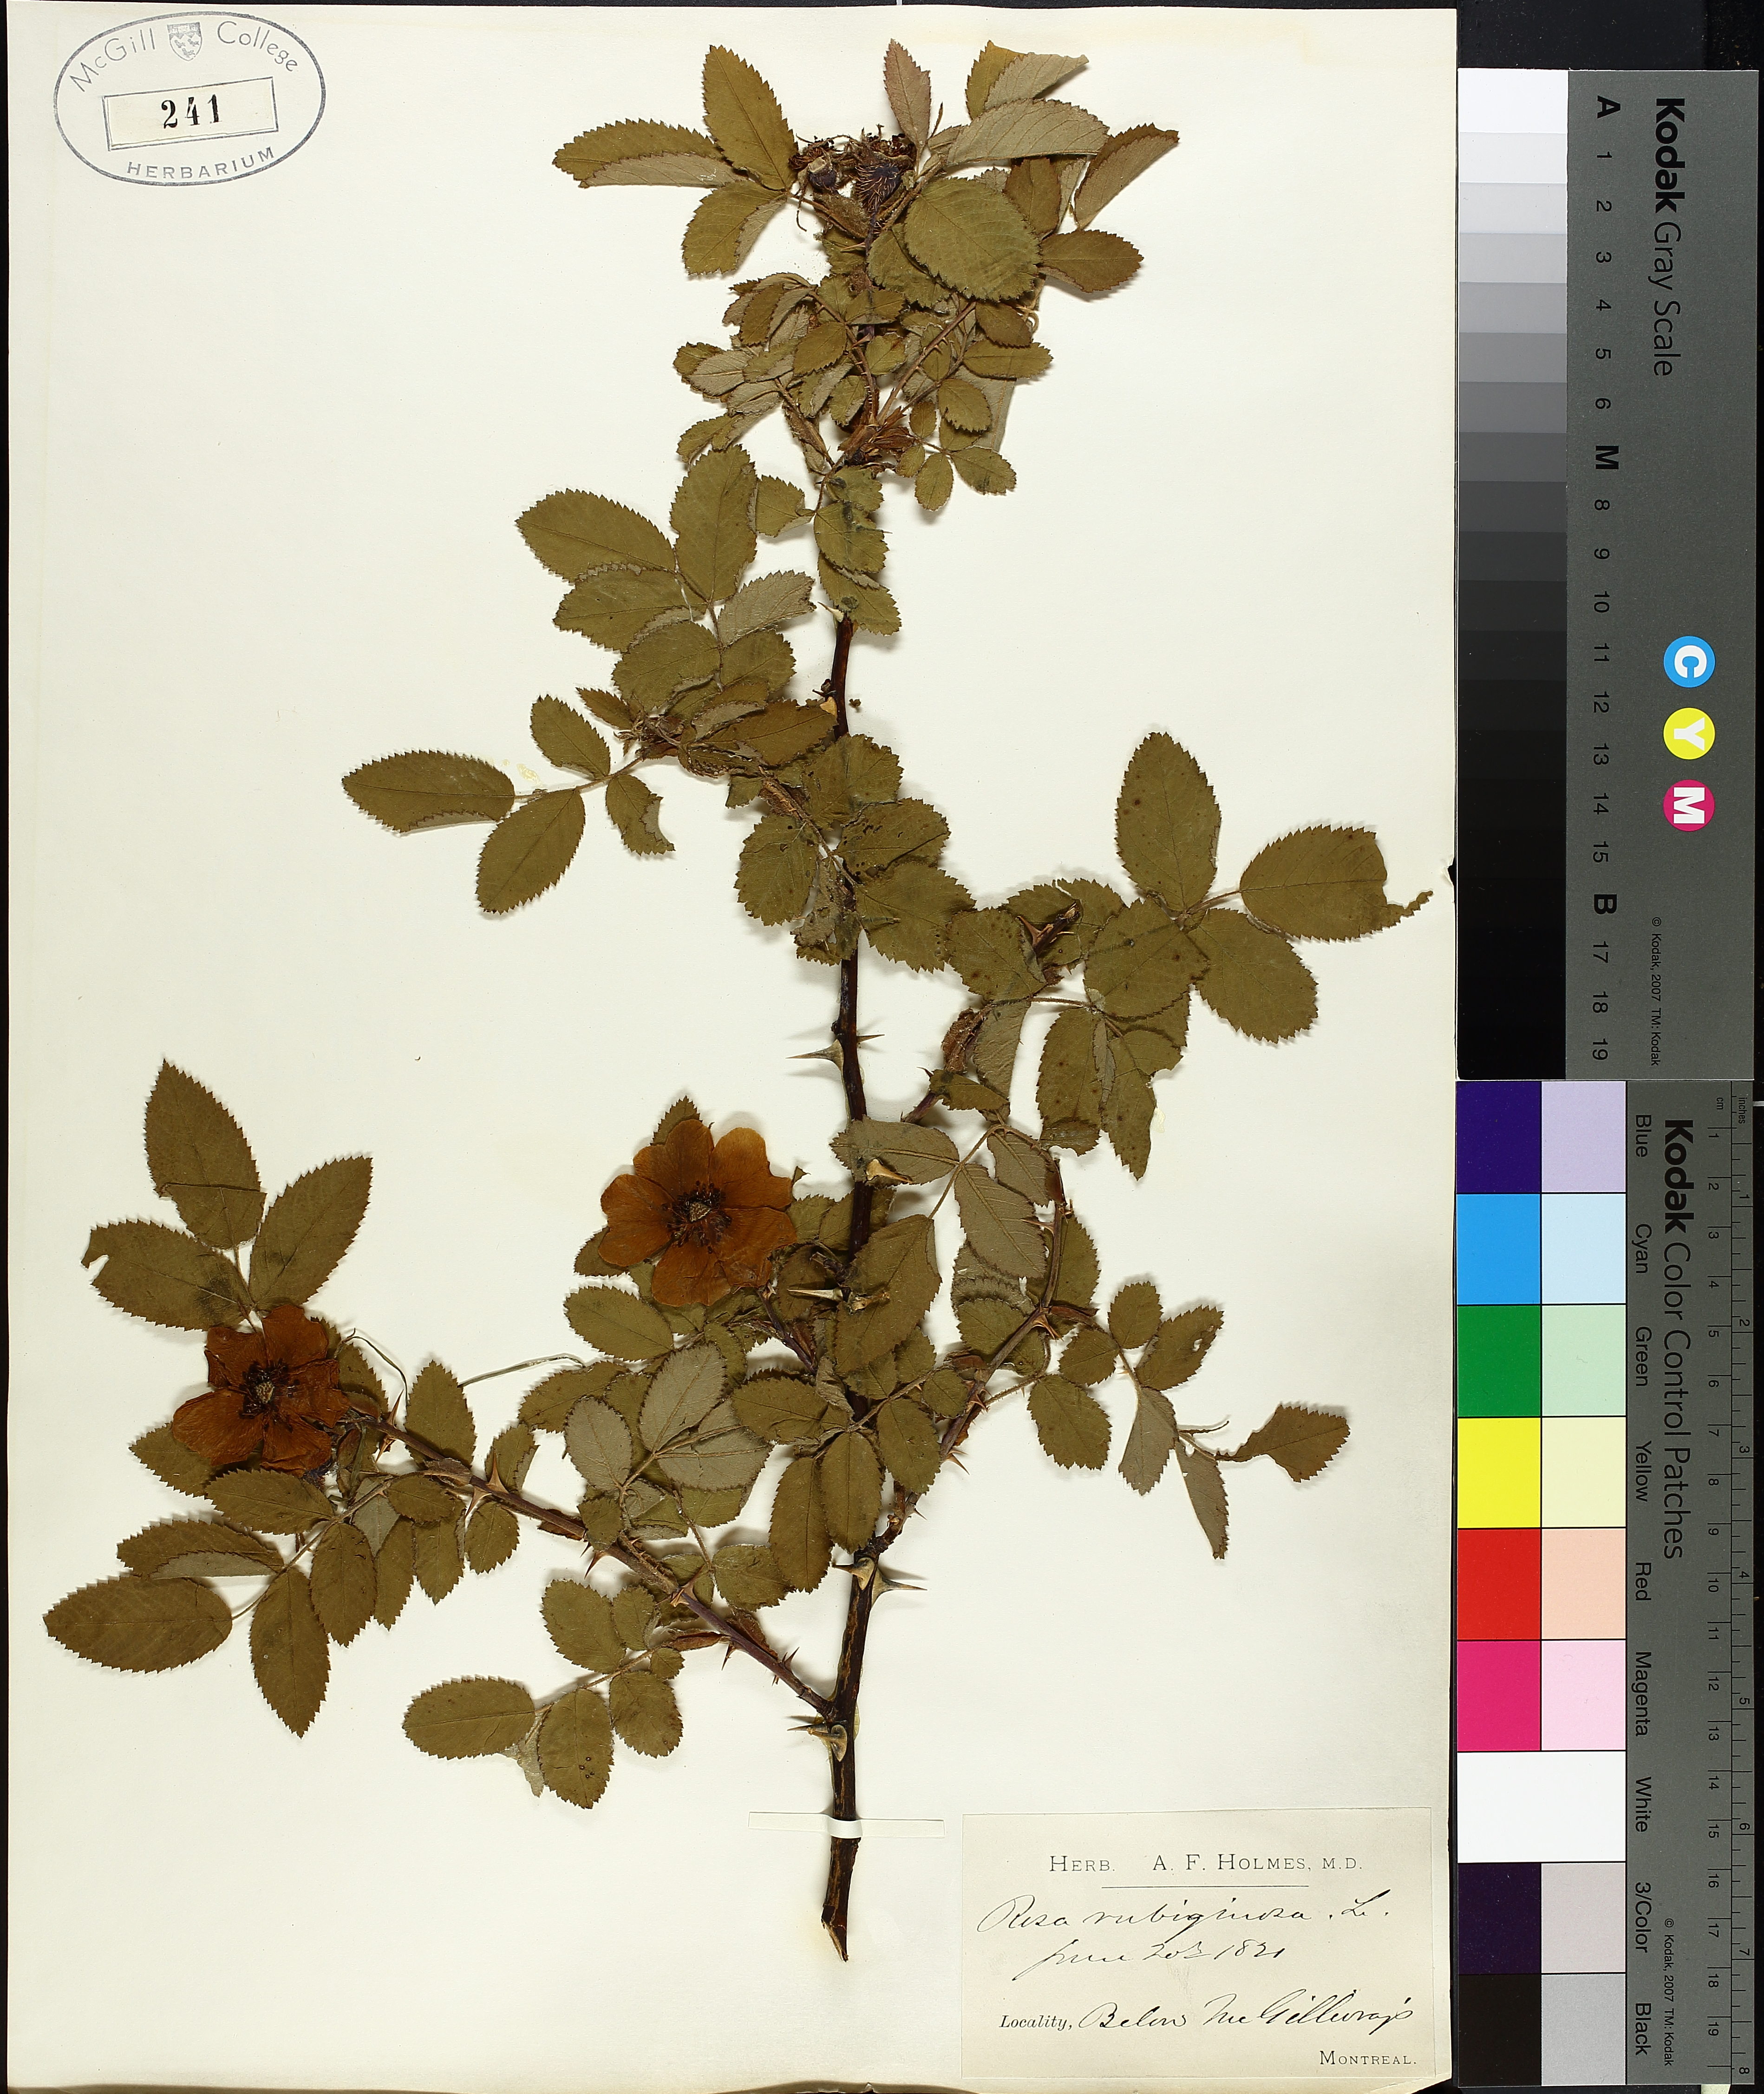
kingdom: Plantae
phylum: Tracheophyta
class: Magnoliopsida
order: Rosales
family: Rosaceae
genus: Rosa
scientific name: Rosa
